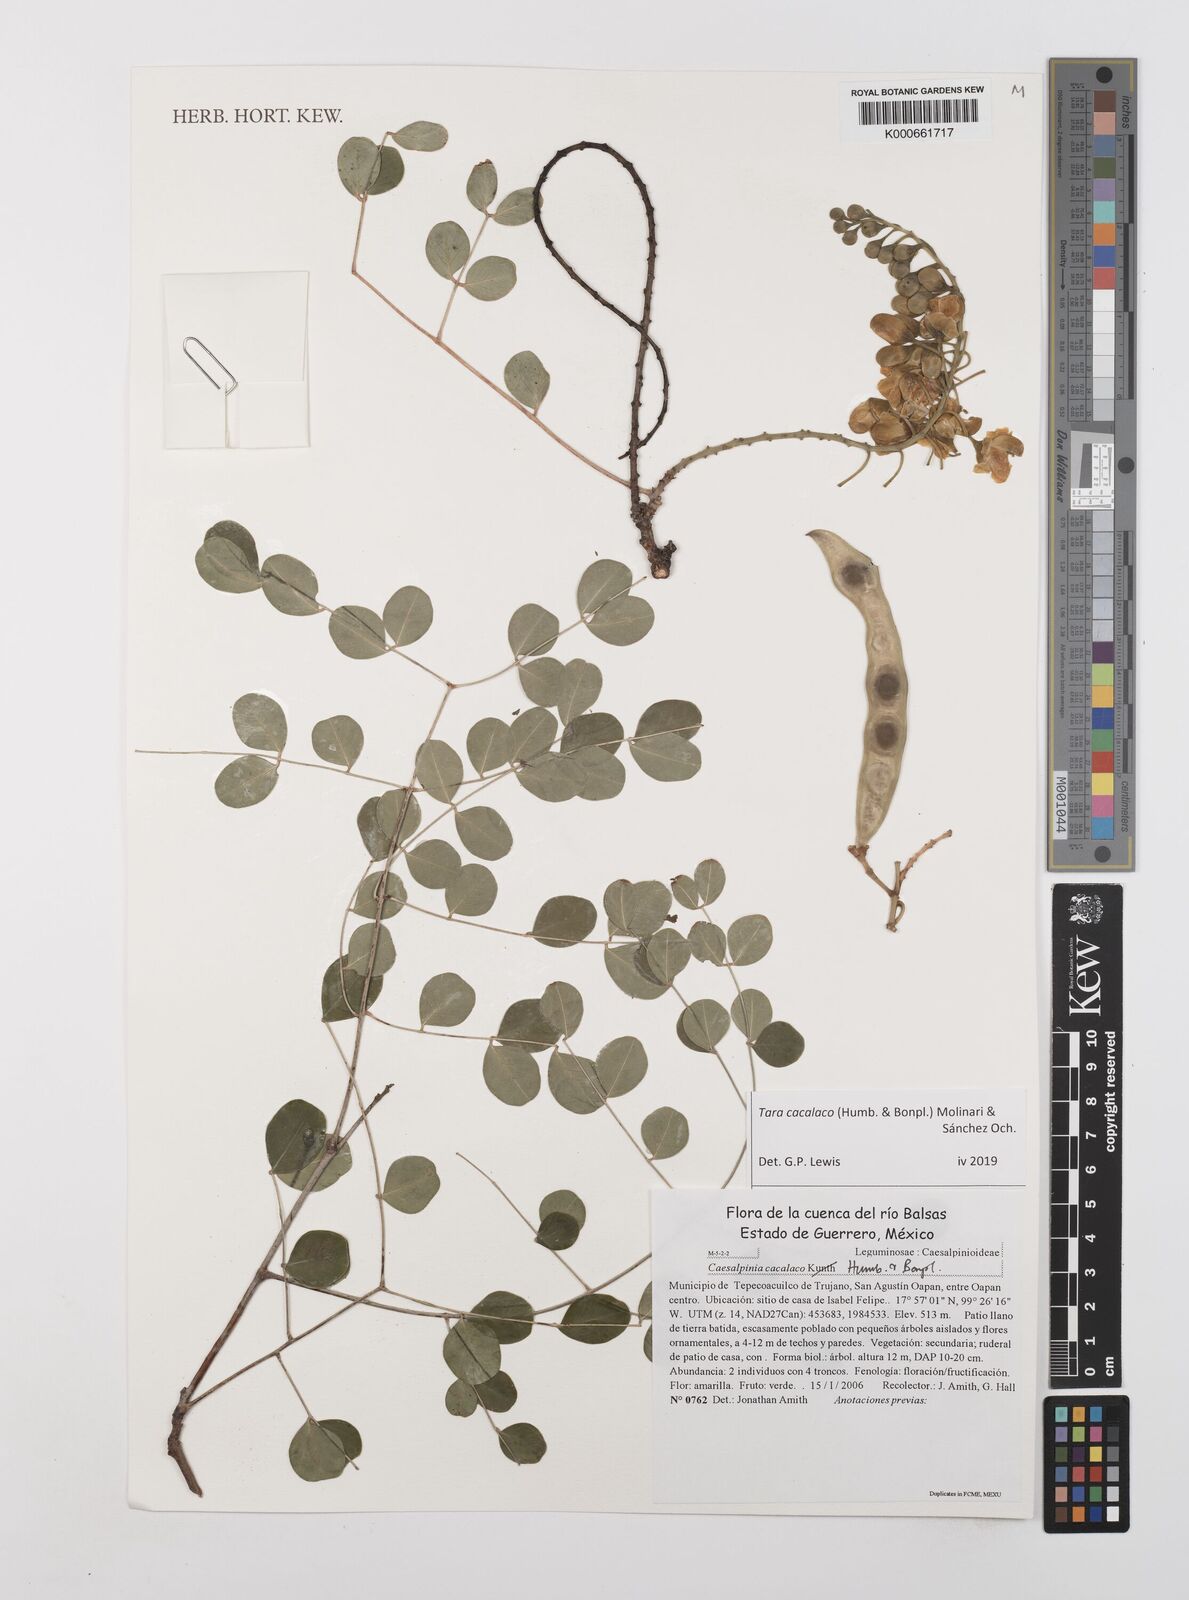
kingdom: Plantae
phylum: Tracheophyta
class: Magnoliopsida
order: Fabales
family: Fabaceae
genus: Tara
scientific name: Tara cacalaco
